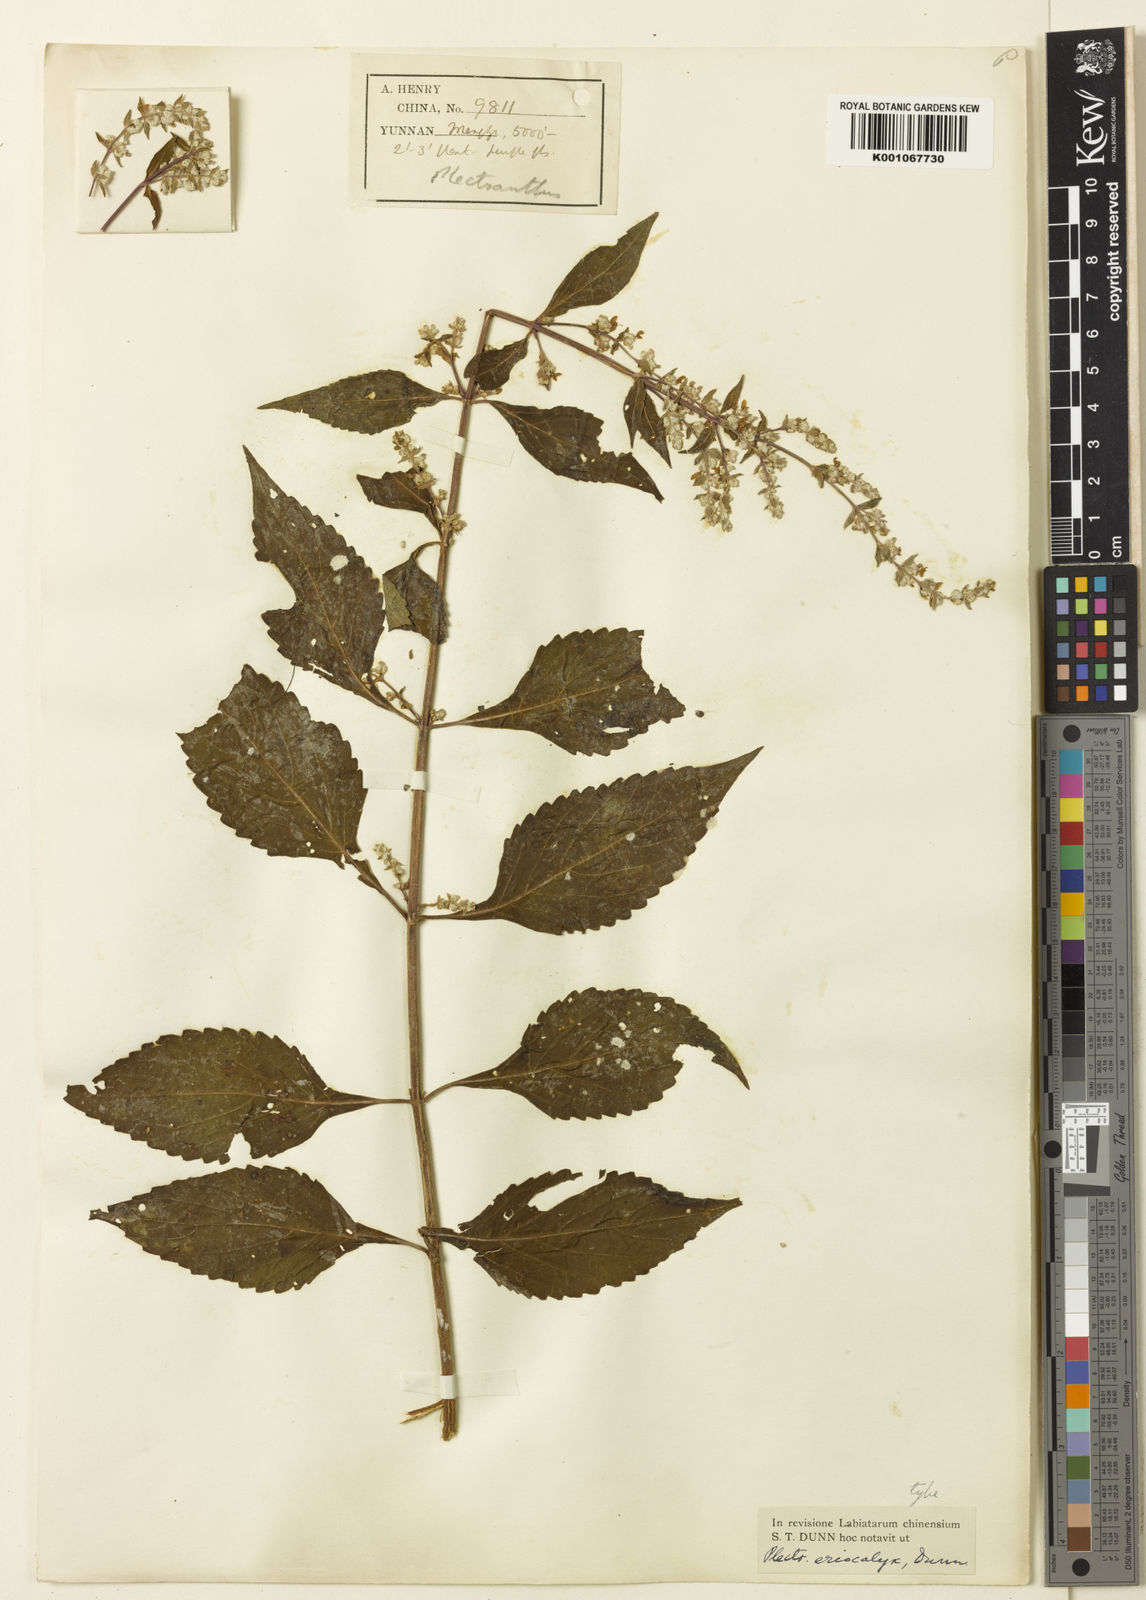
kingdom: Plantae
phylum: Tracheophyta
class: Magnoliopsida
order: Lamiales
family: Lamiaceae
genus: Isodon
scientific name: Isodon
